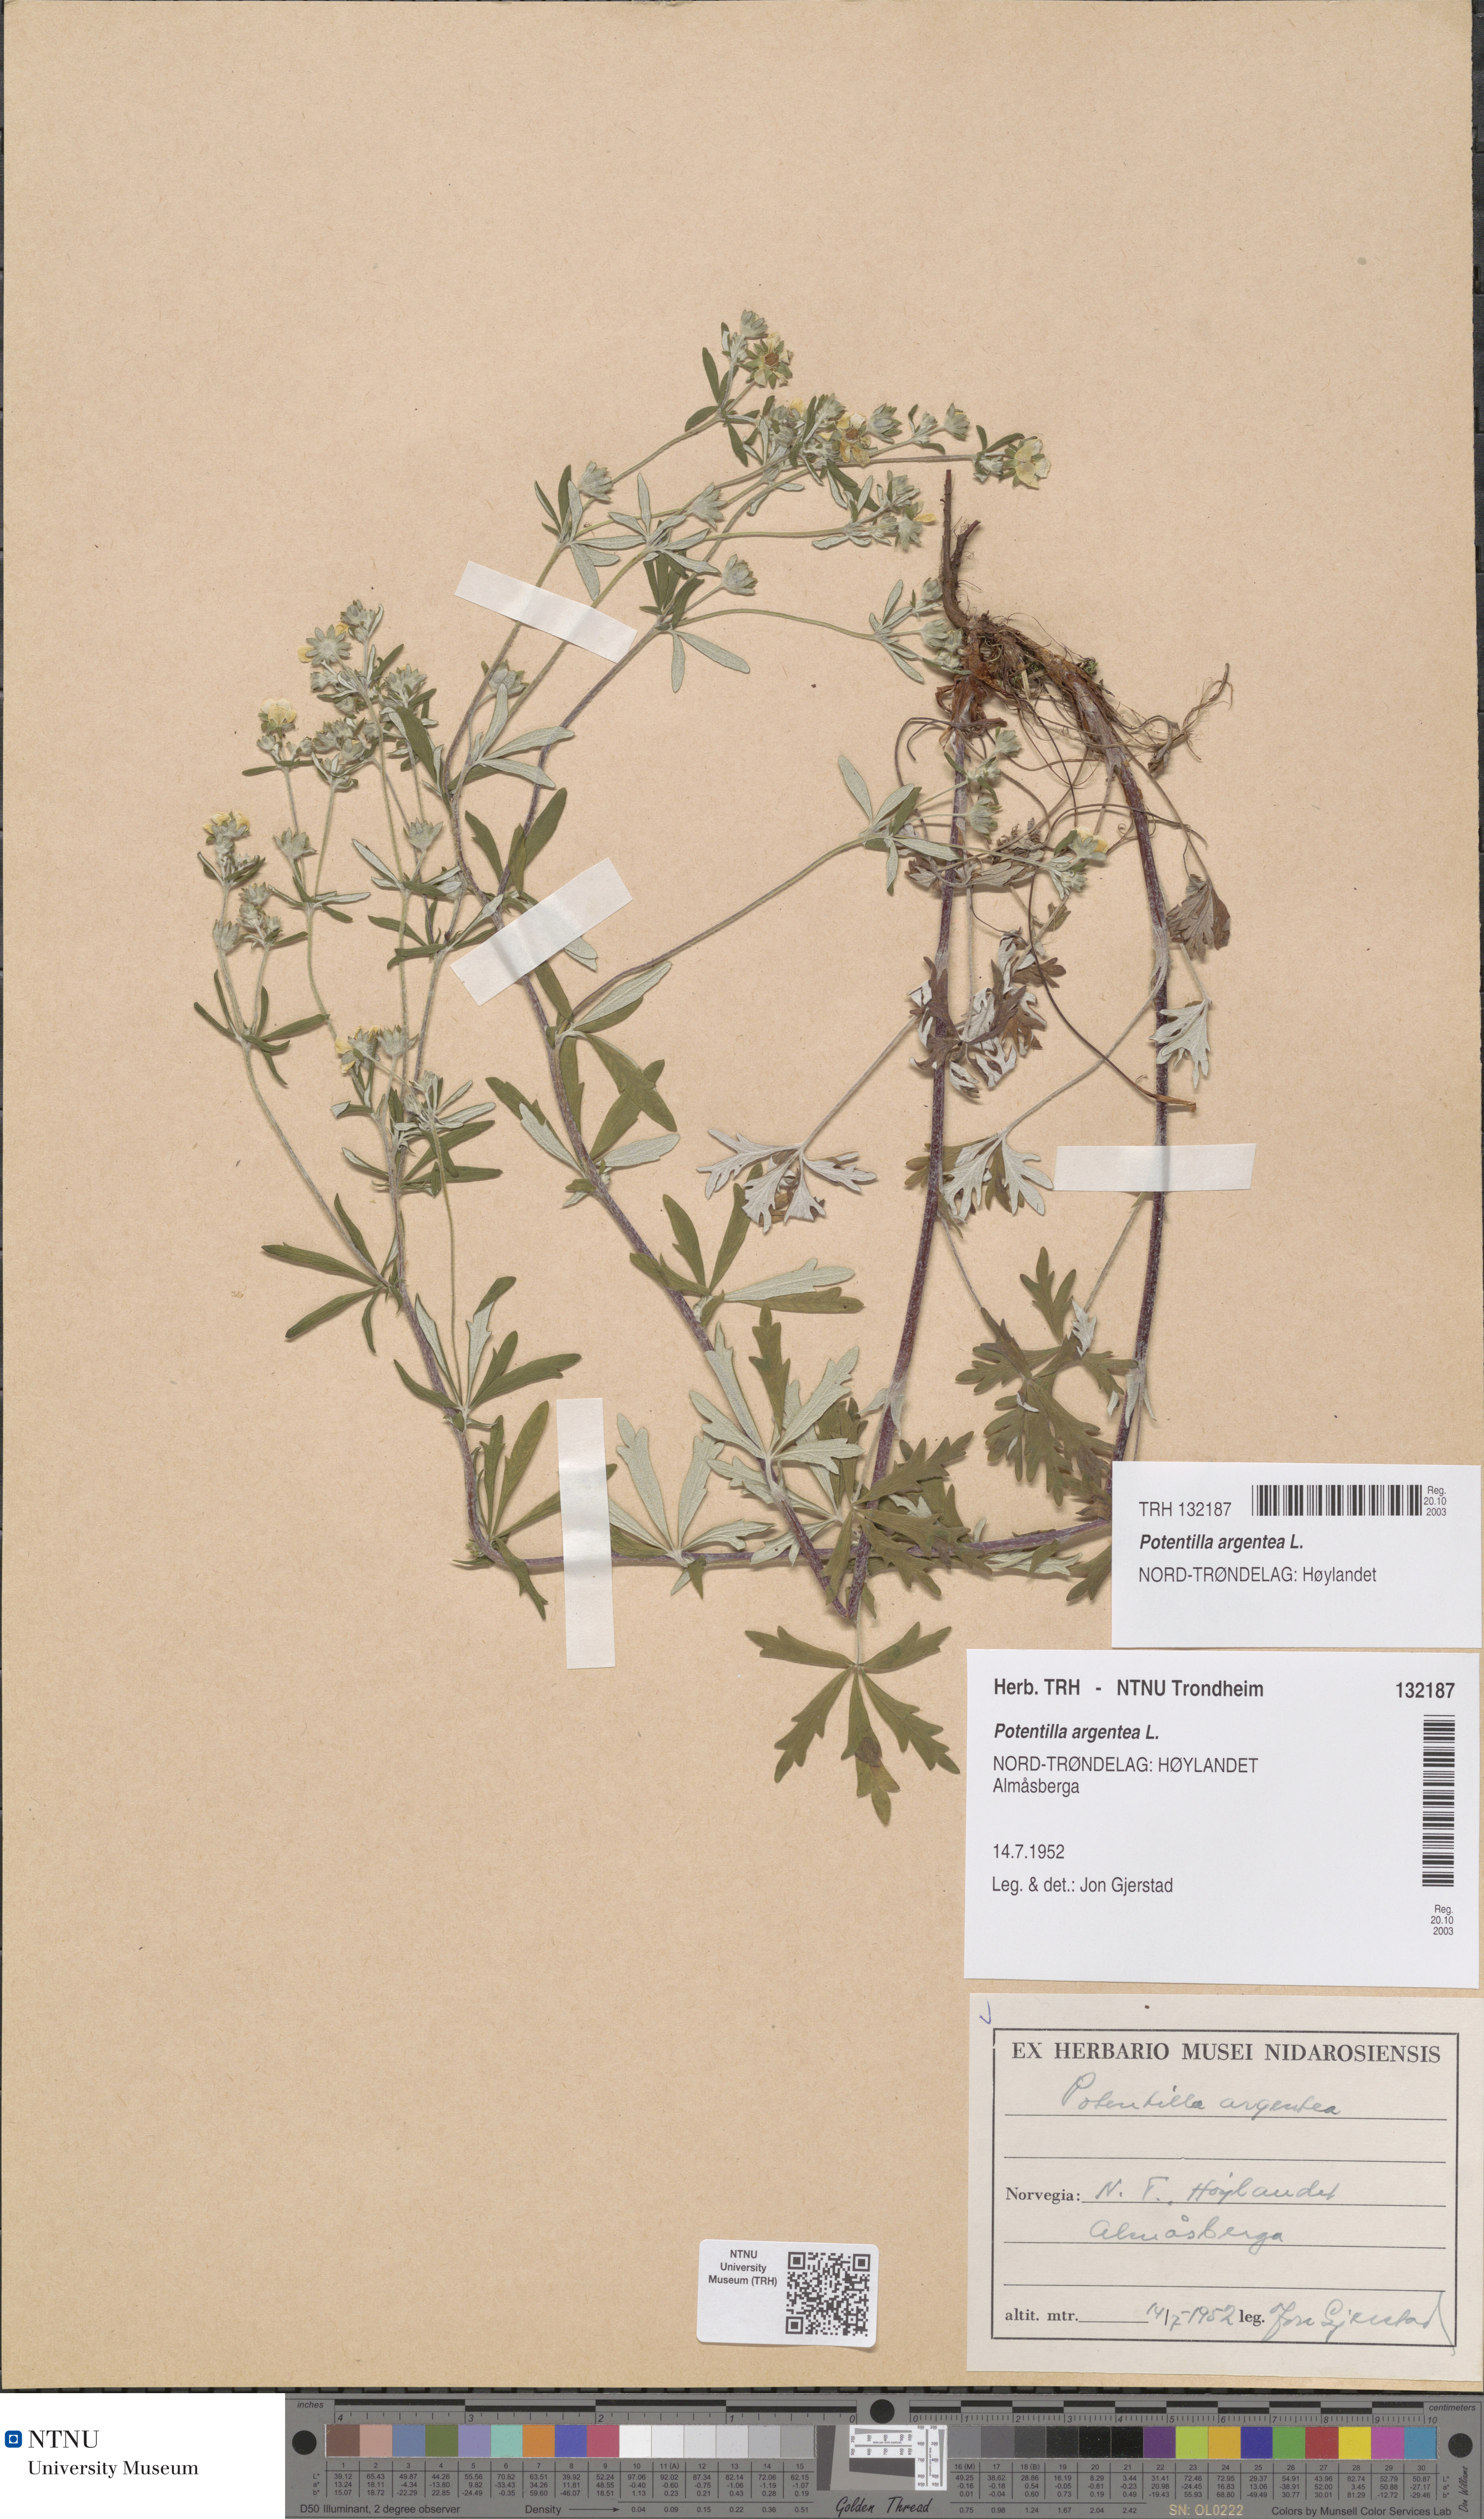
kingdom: Plantae
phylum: Tracheophyta
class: Magnoliopsida
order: Rosales
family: Rosaceae
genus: Potentilla
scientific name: Potentilla argentea
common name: Hoary cinquefoil
